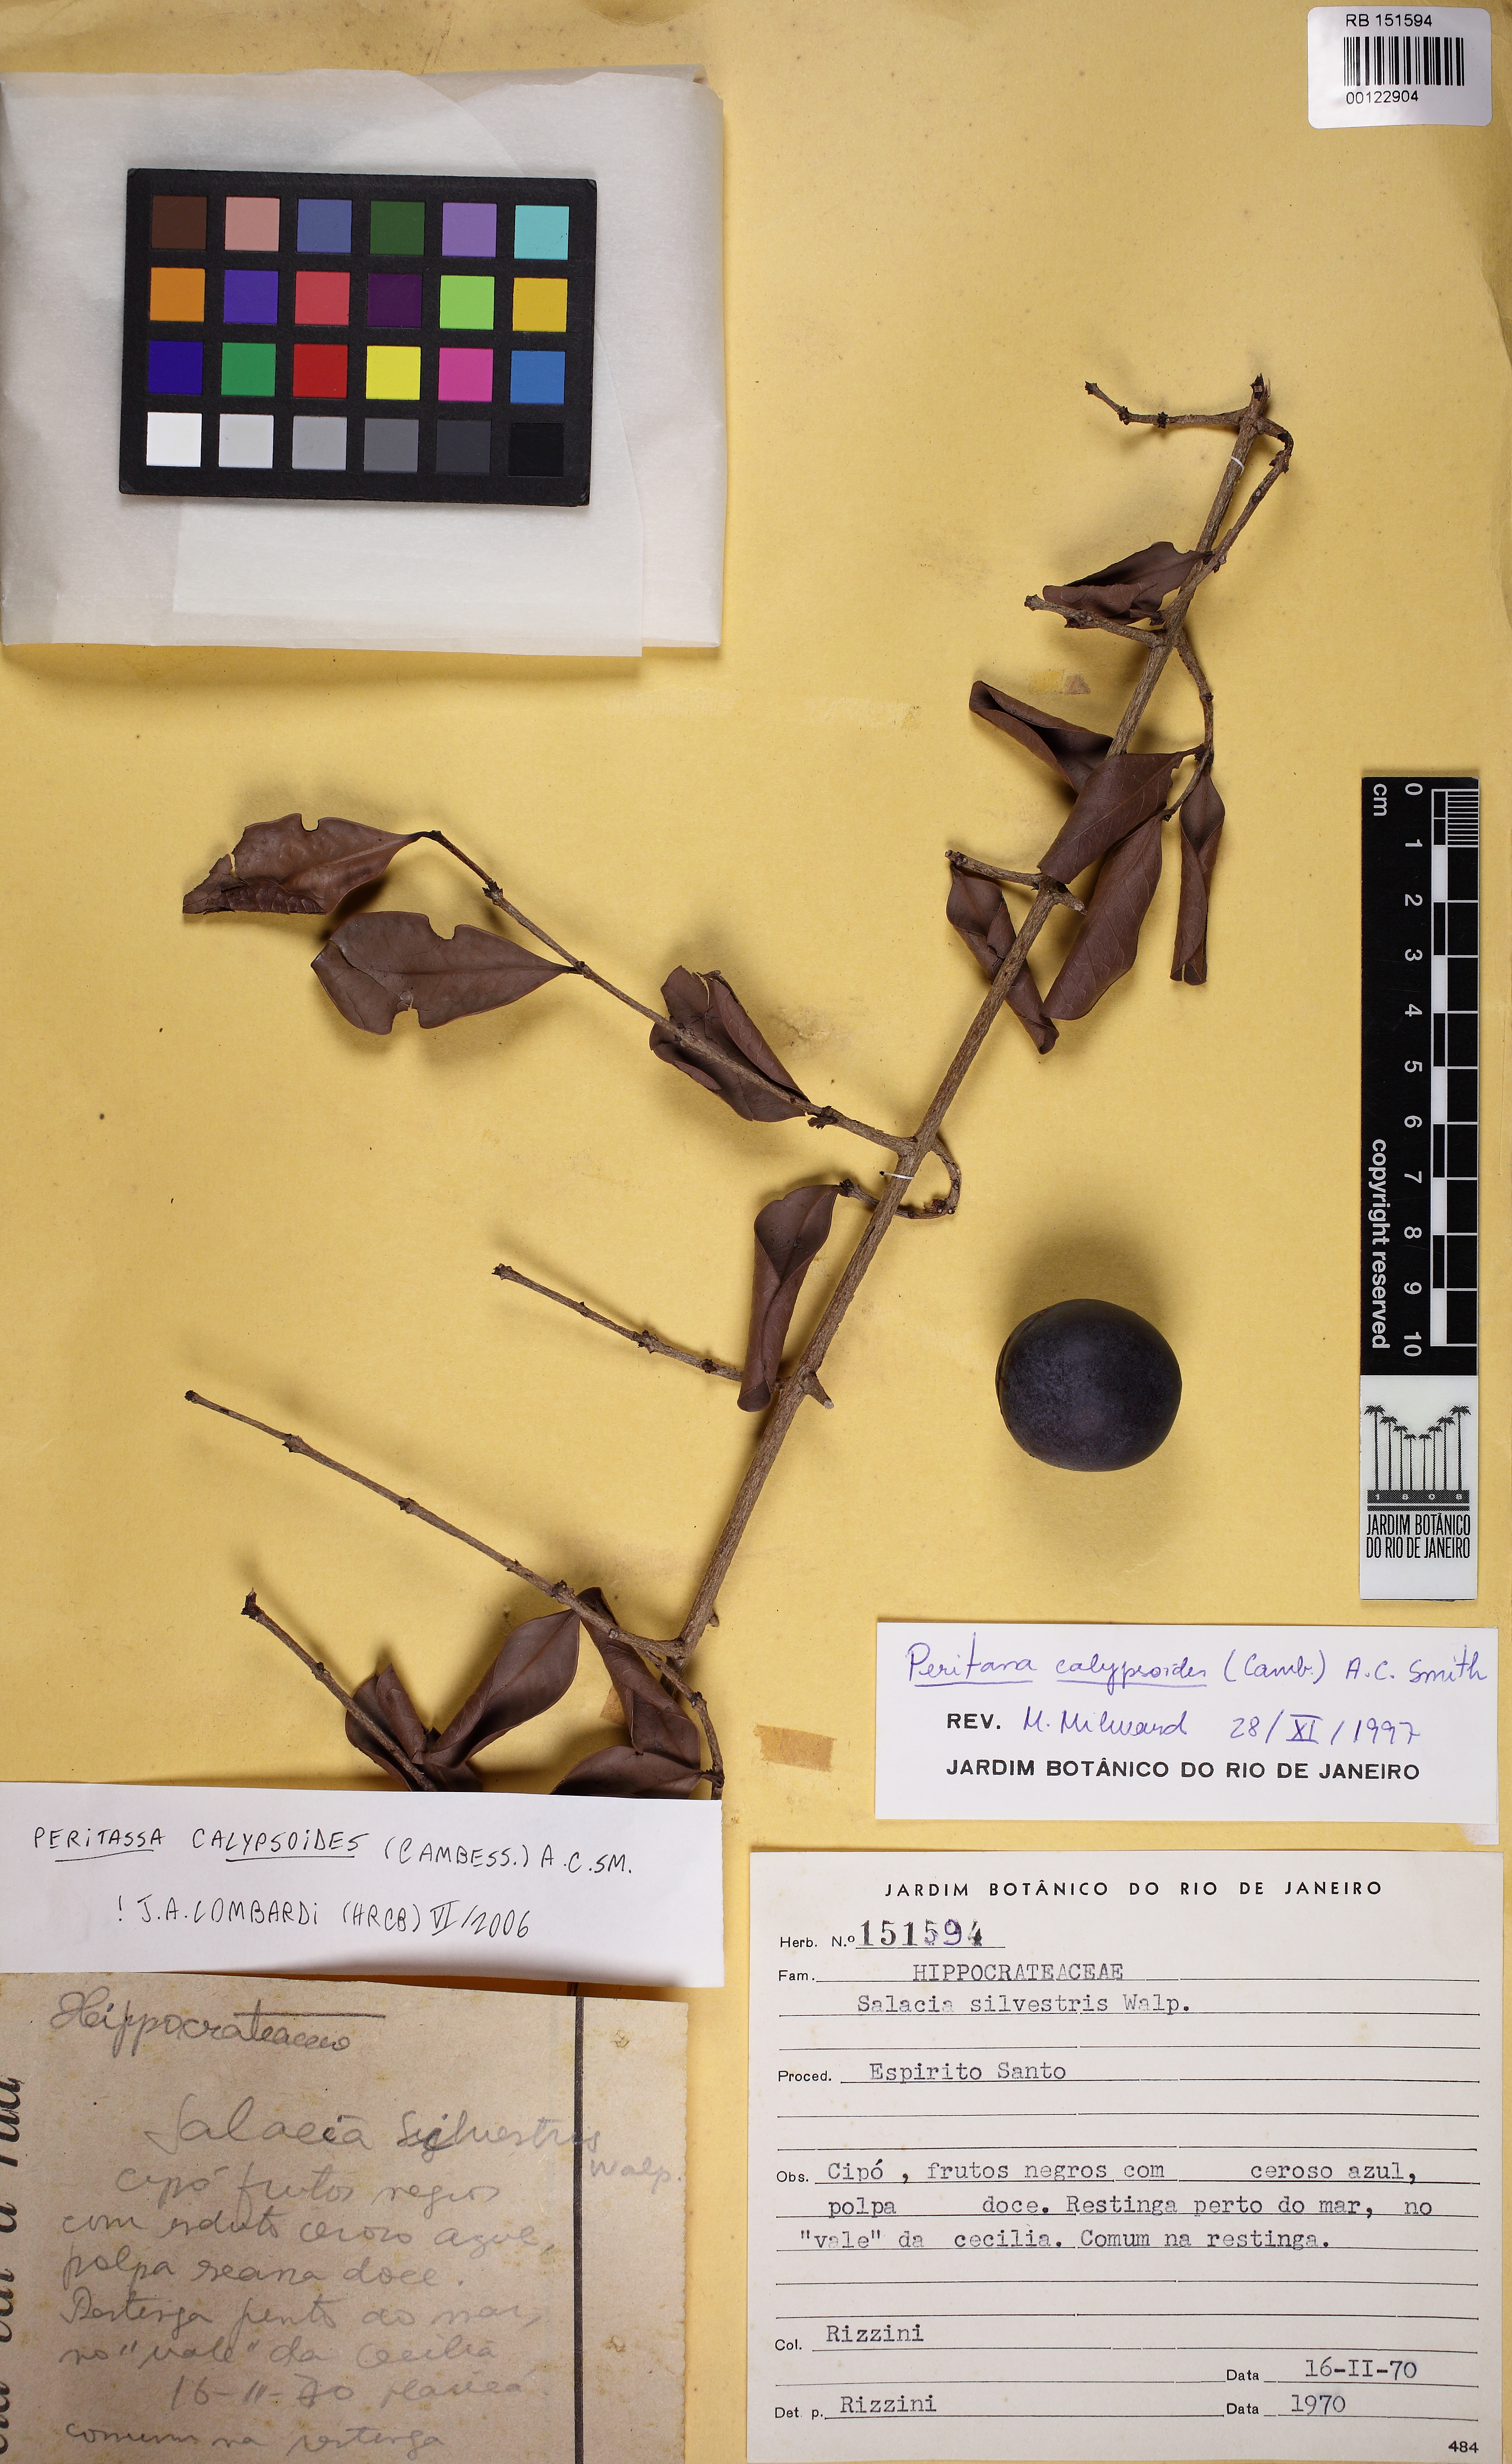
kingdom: Plantae
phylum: Tracheophyta
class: Magnoliopsida
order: Celastrales
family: Celastraceae
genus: Peritassa
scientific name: Peritassa calypsoides
